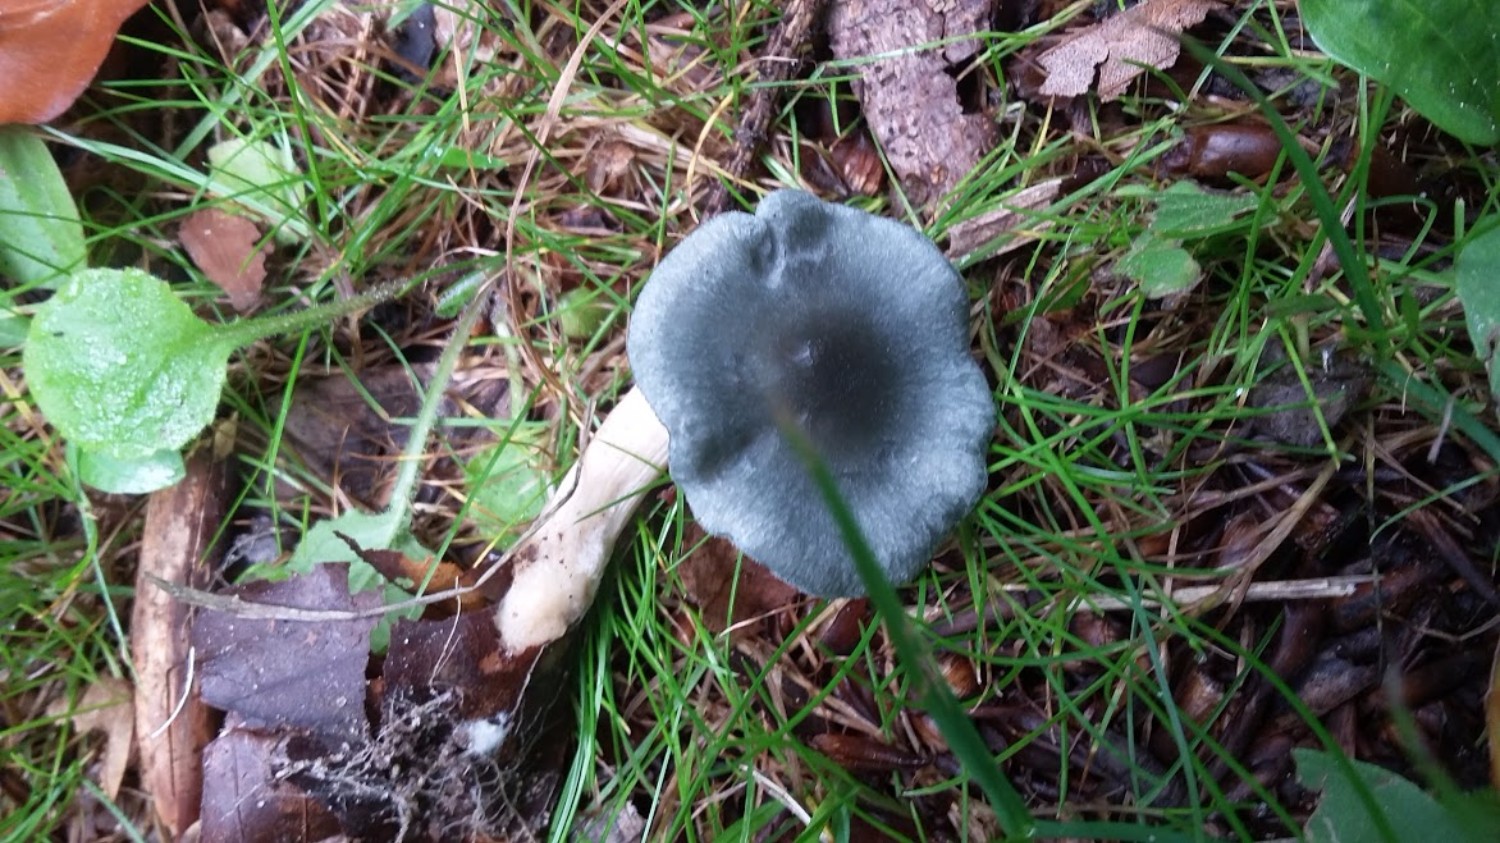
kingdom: Fungi
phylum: Basidiomycota
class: Agaricomycetes
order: Agaricales
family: Tricholomataceae
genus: Clitocybe
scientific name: Clitocybe odora
